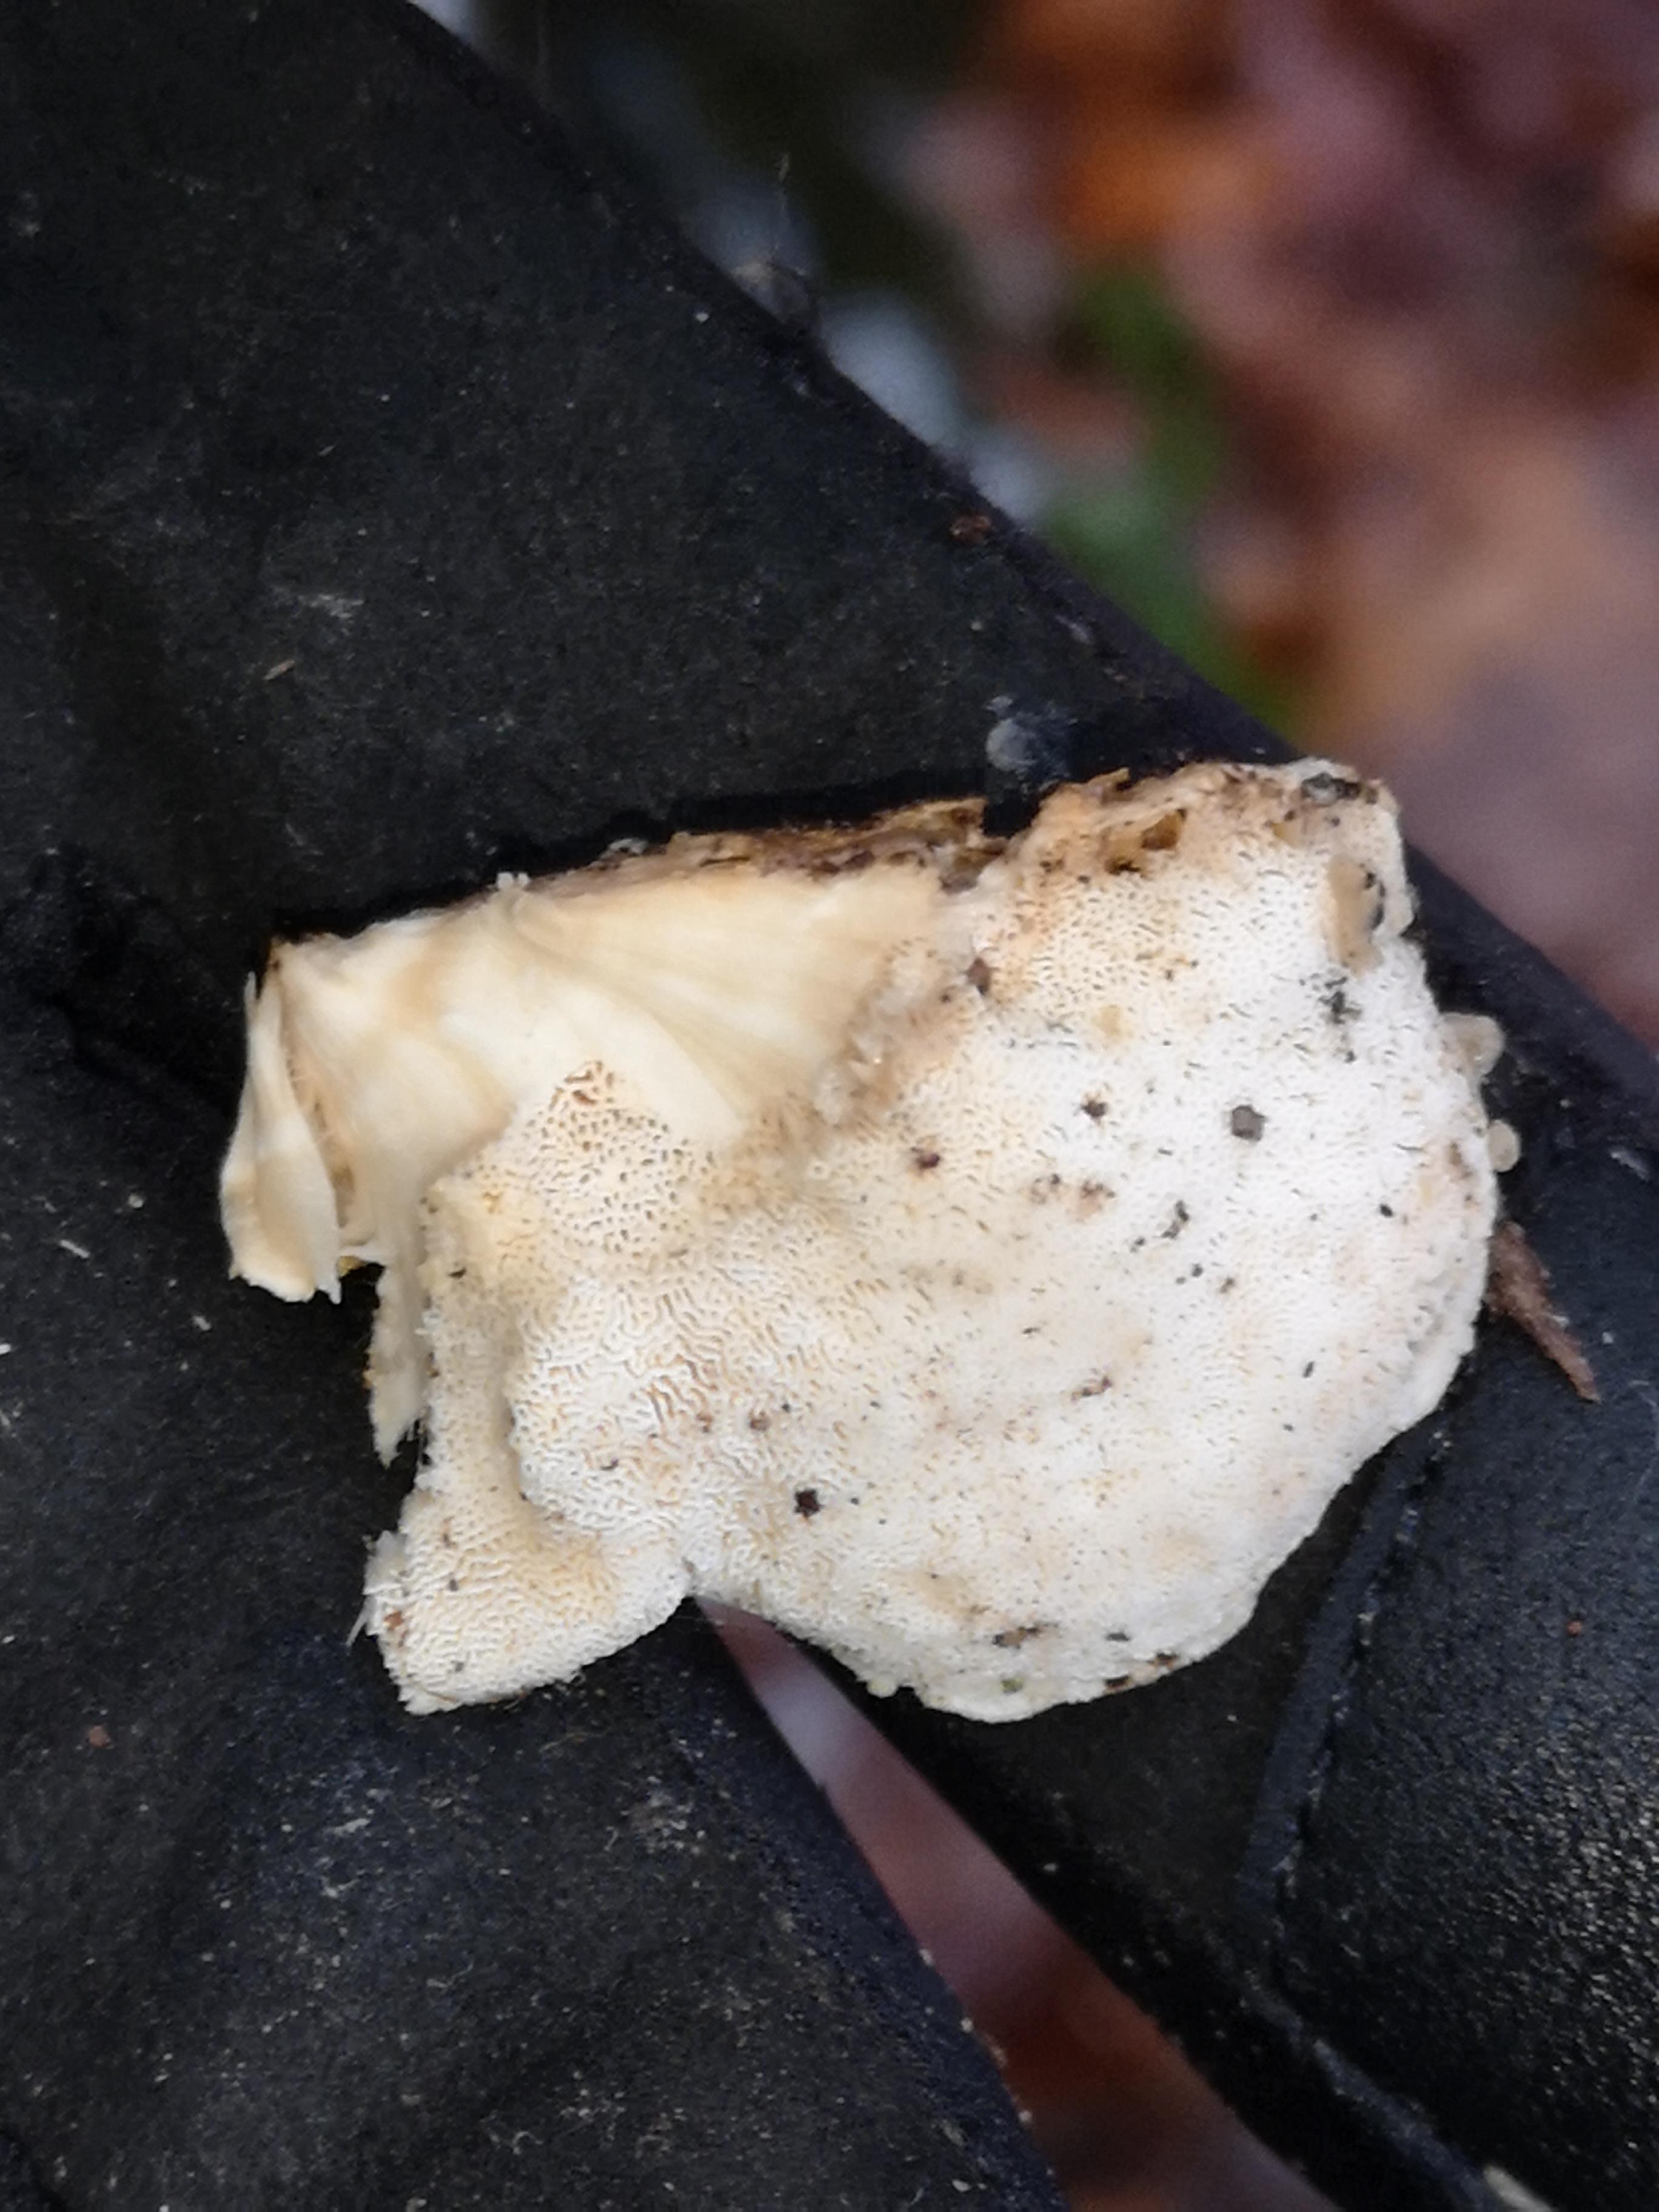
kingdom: Fungi
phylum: Basidiomycota
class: Agaricomycetes
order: Polyporales
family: Incrustoporiaceae
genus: Tyromyces
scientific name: Tyromyces chioneus
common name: stor blødporesvamp
